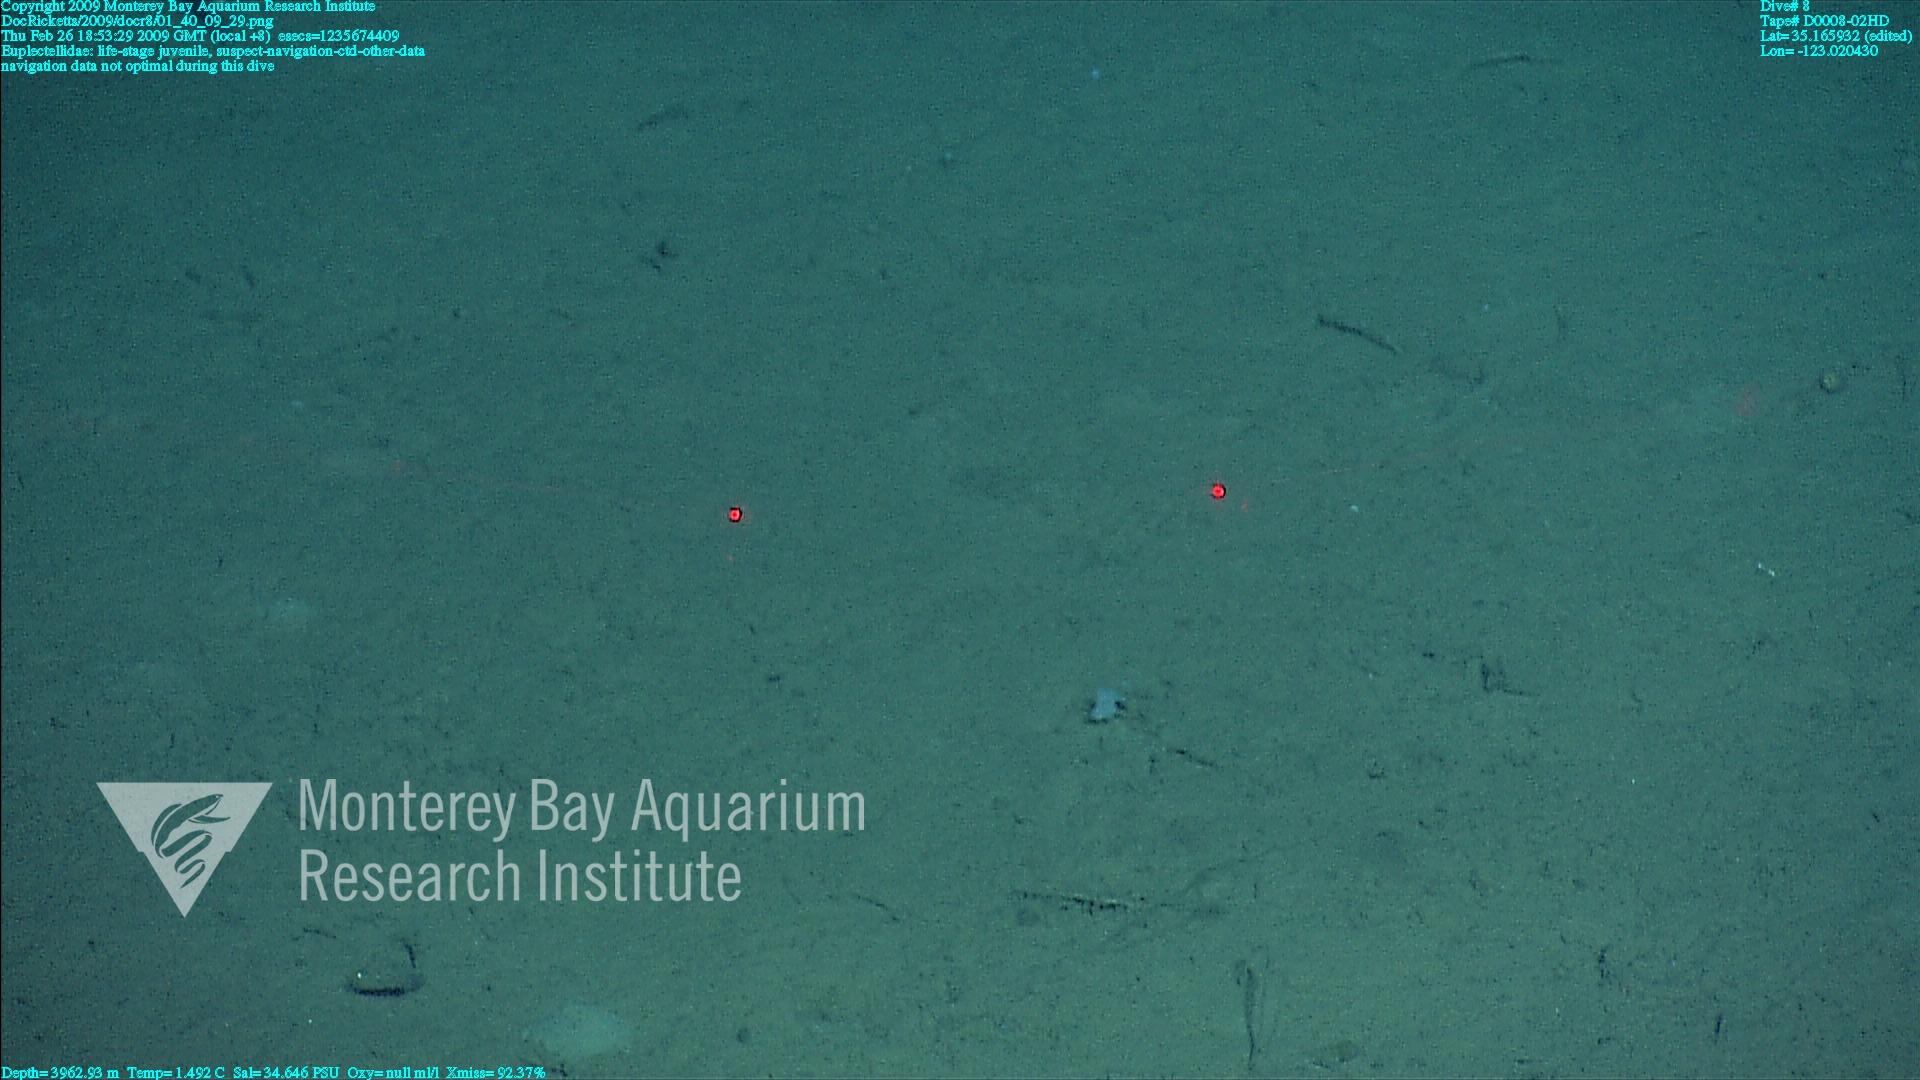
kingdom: Animalia
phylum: Porifera
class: Hexactinellida
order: Lyssacinosida
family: Euplectellidae
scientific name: Euplectellidae
